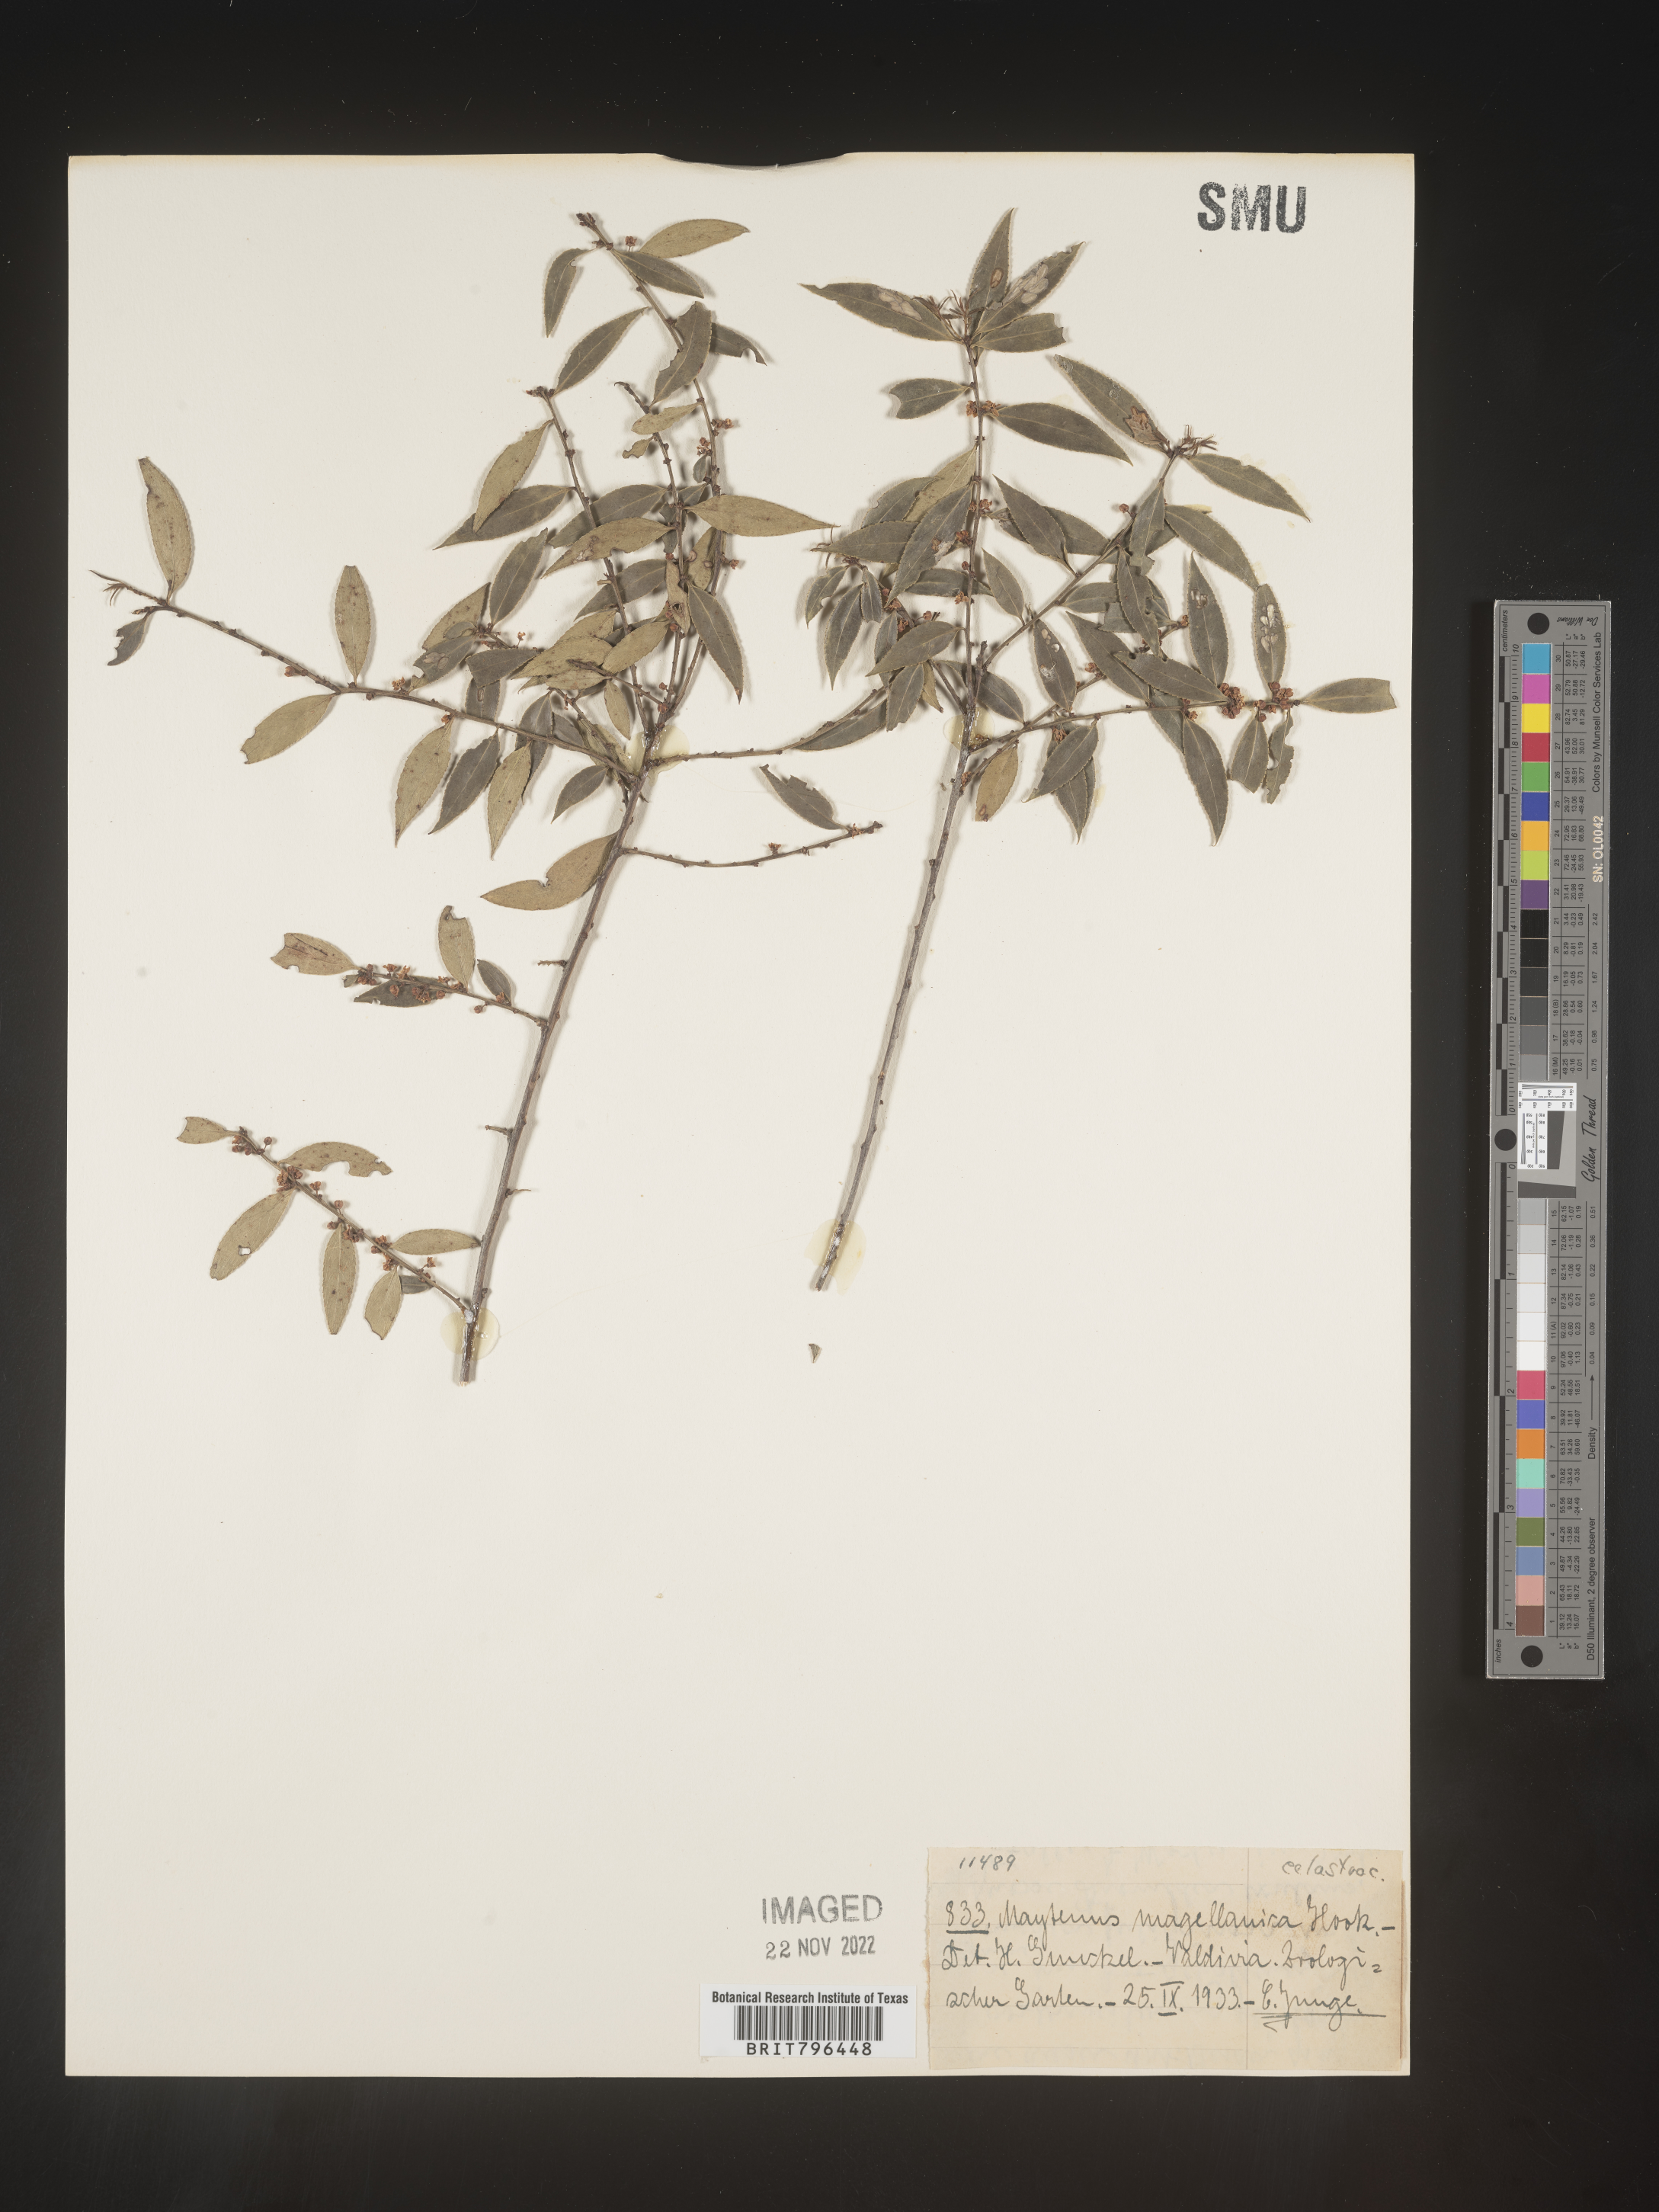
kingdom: Plantae
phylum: Tracheophyta
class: Magnoliopsida
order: Celastrales
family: Celastraceae
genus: Maytenus
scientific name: Maytenus
